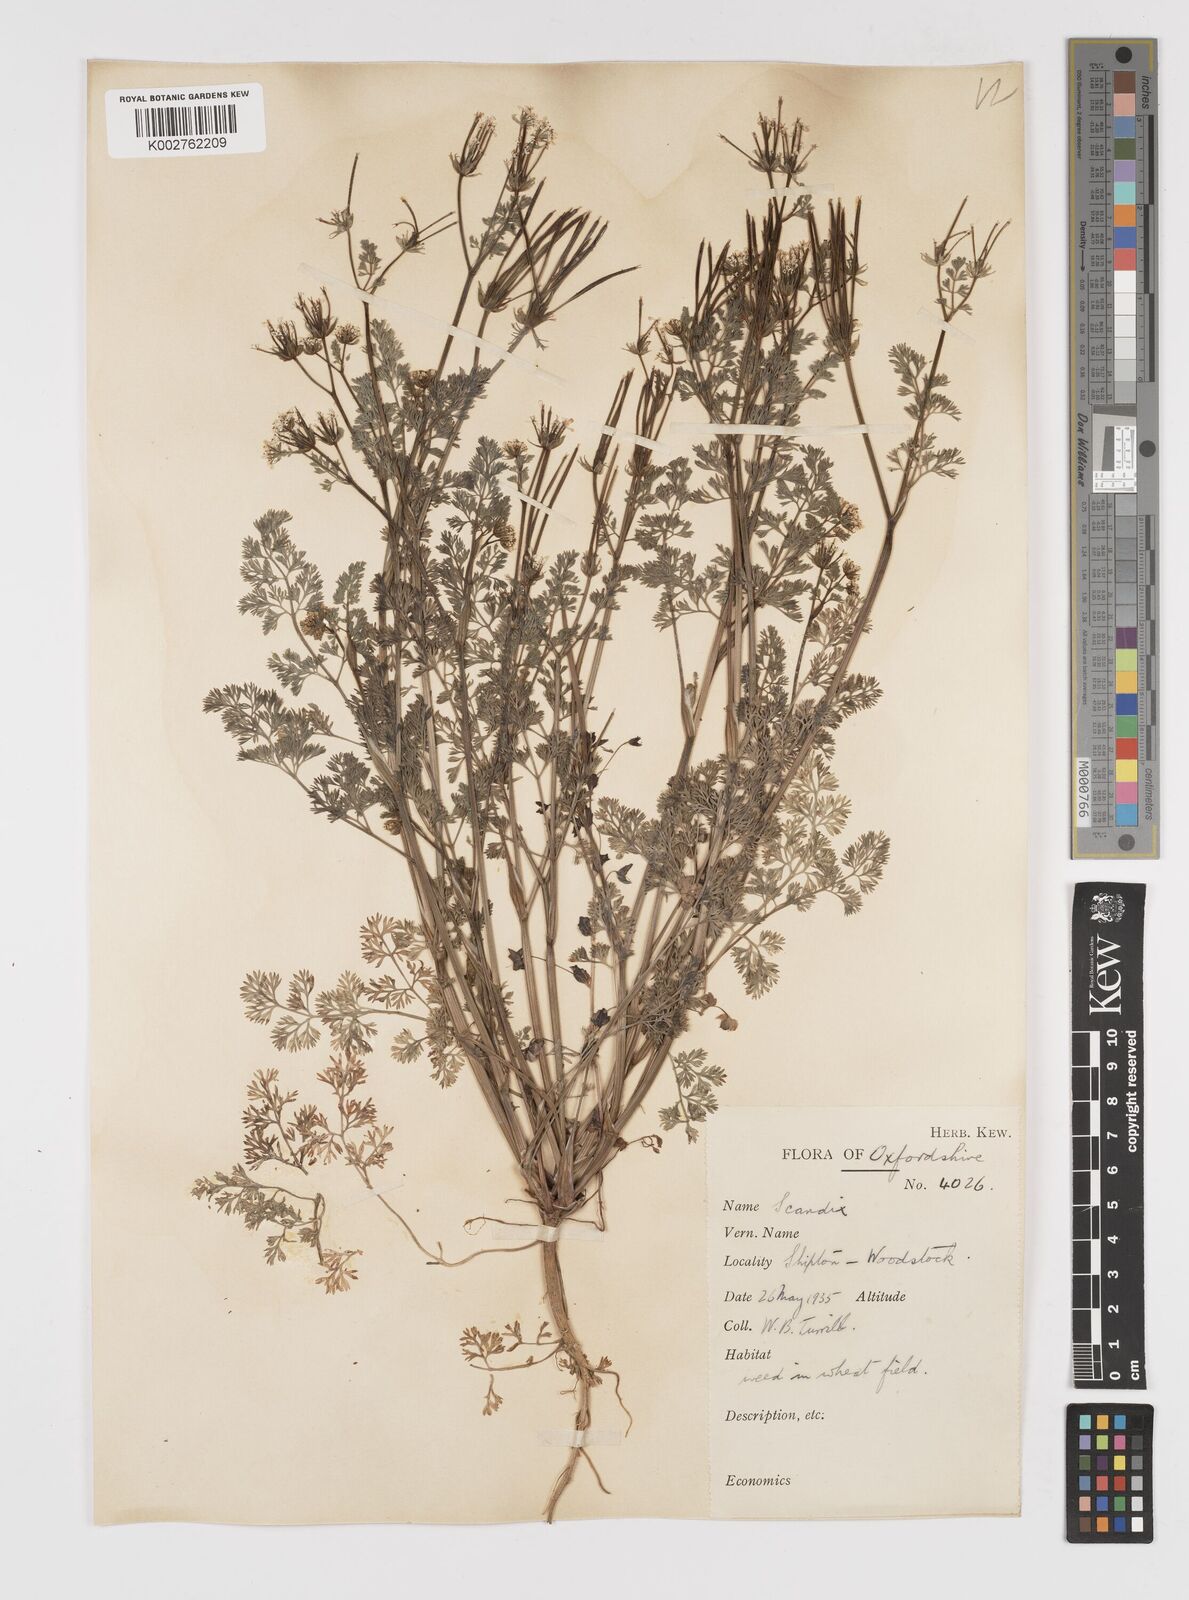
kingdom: Plantae
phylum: Tracheophyta
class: Magnoliopsida
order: Apiales
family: Apiaceae
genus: Scandix
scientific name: Scandix pecten-veneris
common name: Shepherd's-needle
